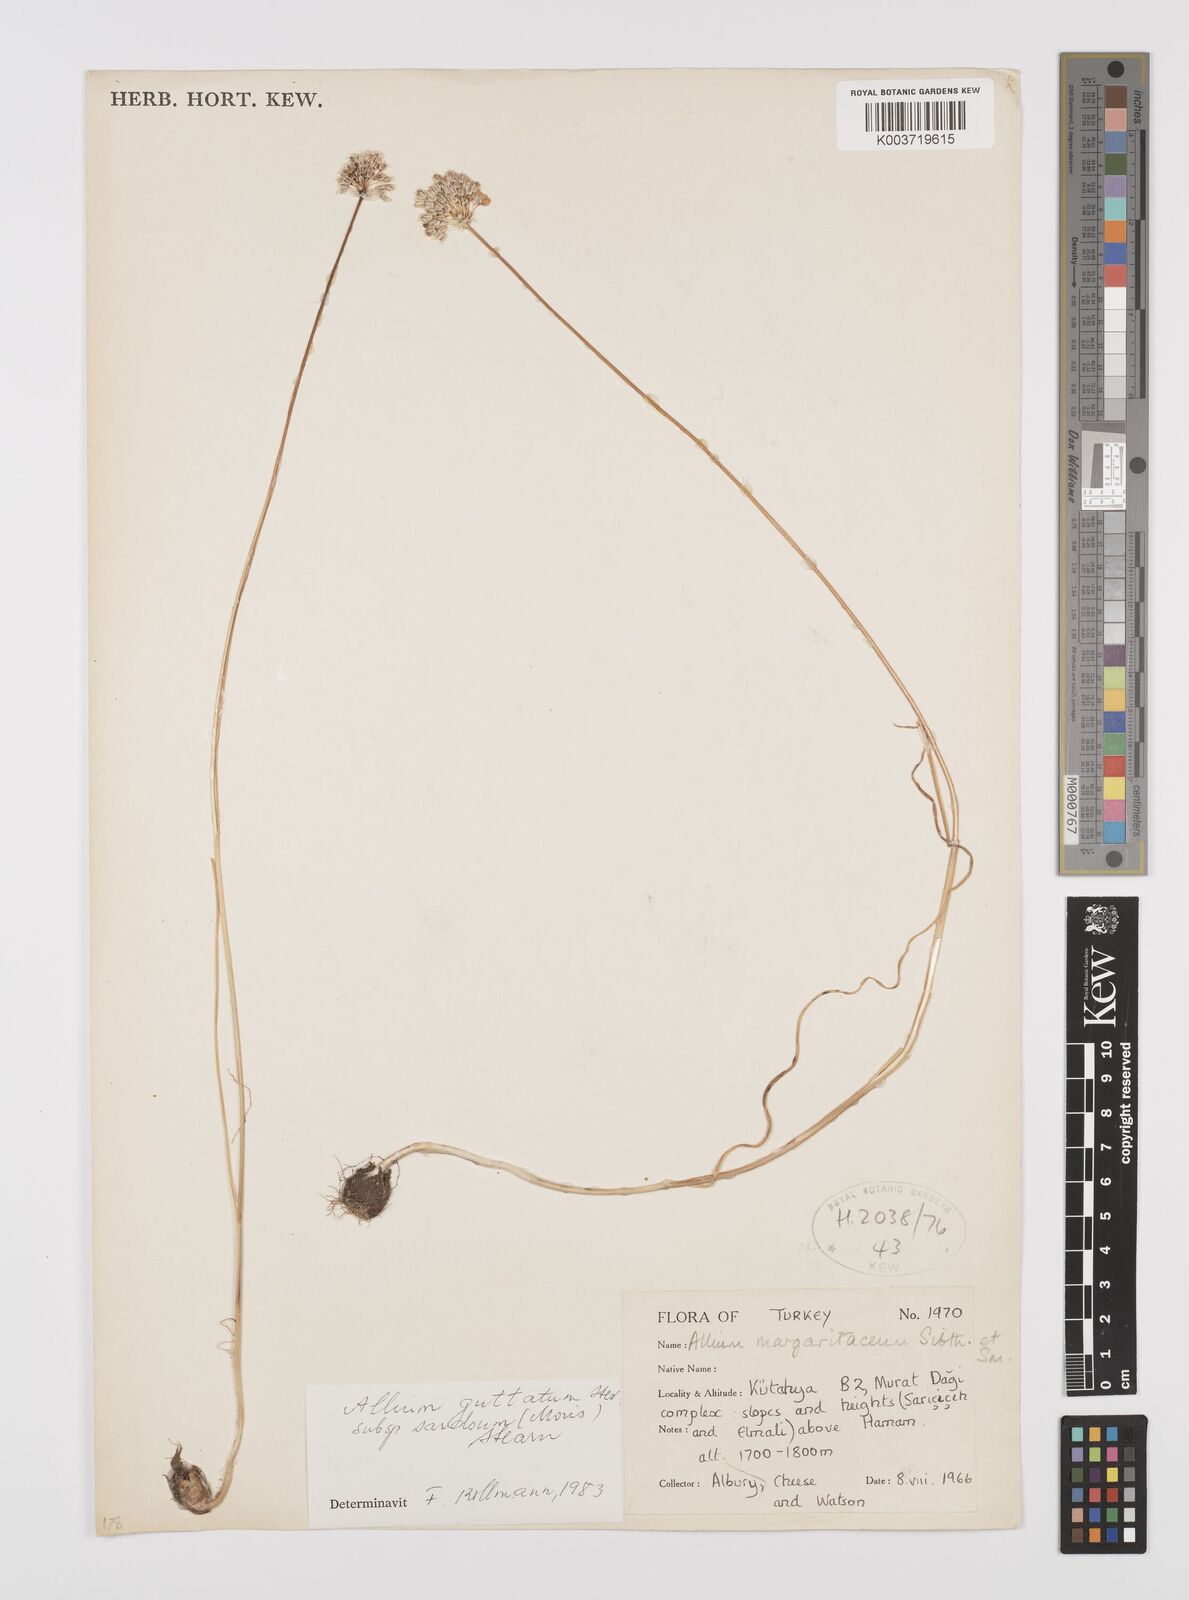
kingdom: Plantae
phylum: Tracheophyta
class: Liliopsida
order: Asparagales
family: Amaryllidaceae
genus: Allium
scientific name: Allium guttatum
